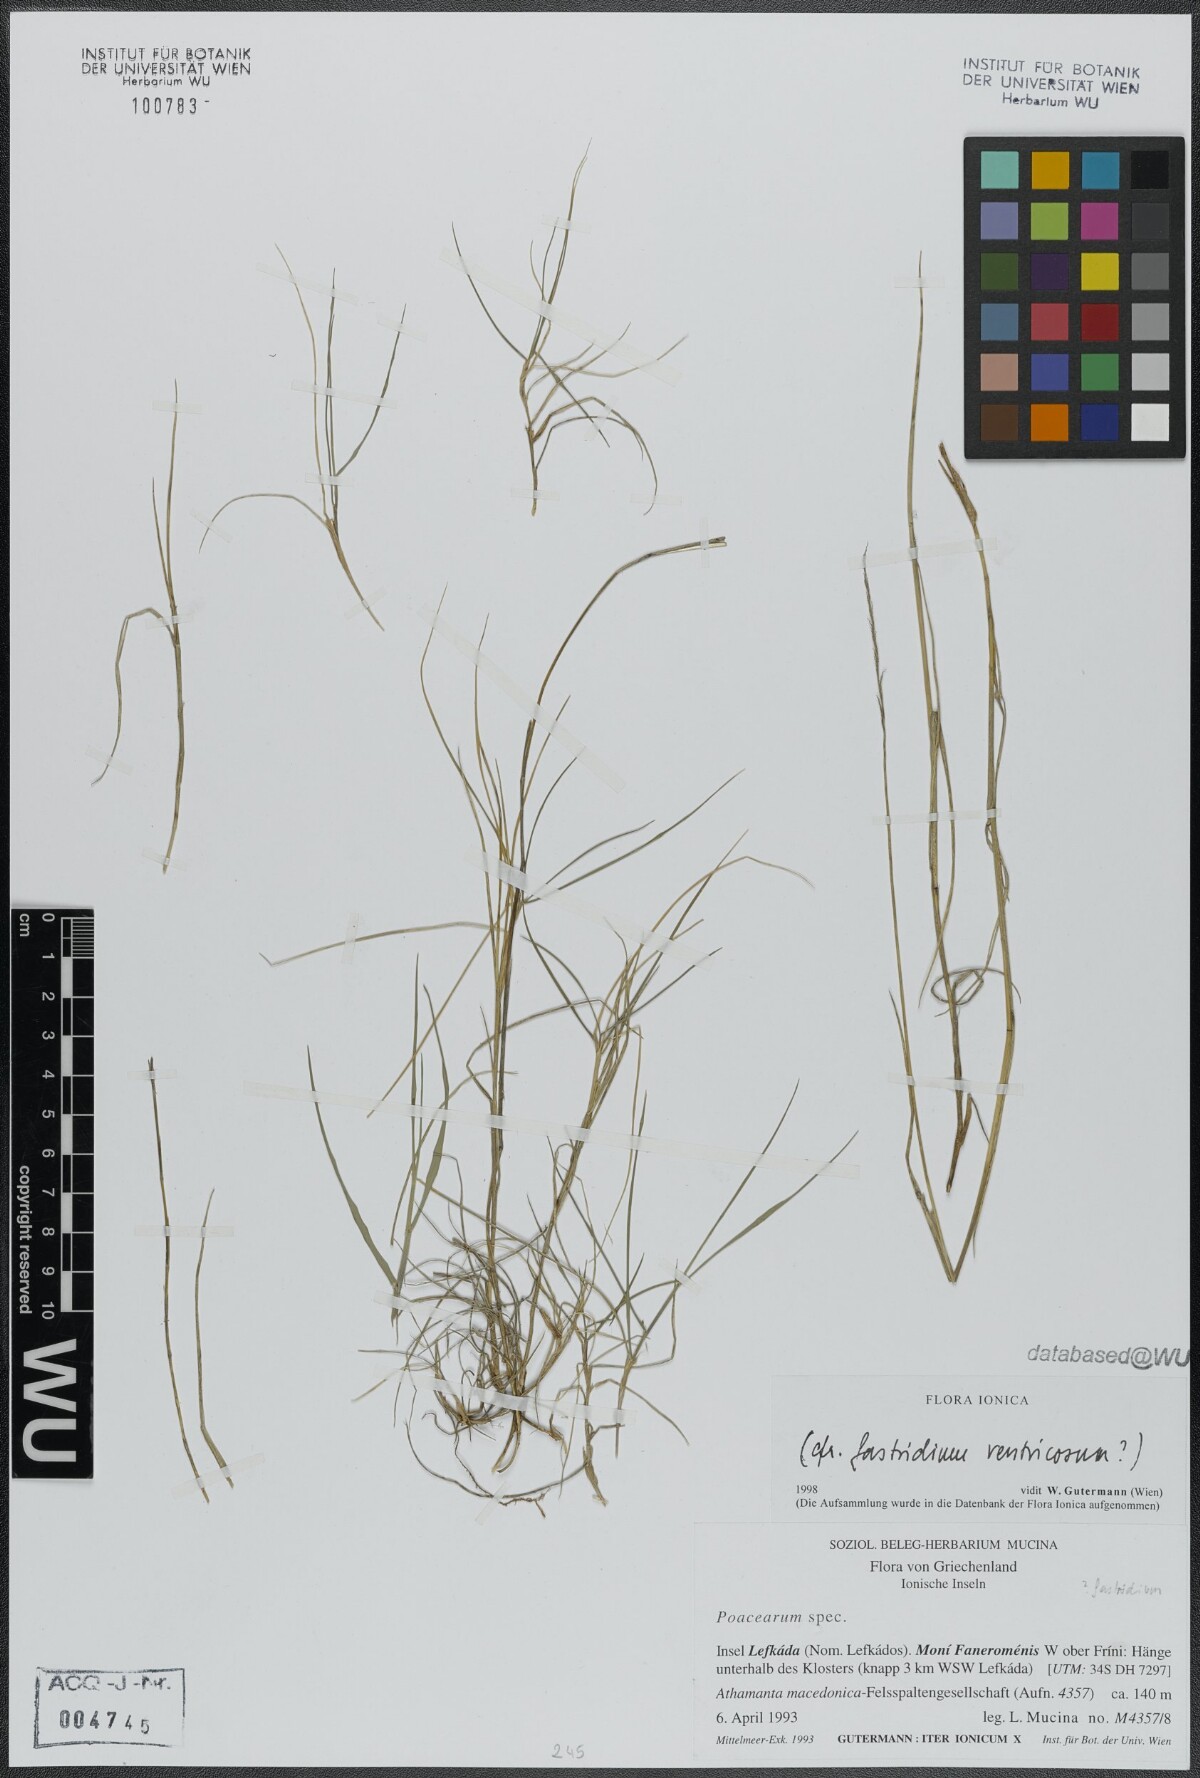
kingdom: Plantae
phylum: Tracheophyta
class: Liliopsida
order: Poales
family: Poaceae
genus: Gastridium
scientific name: Gastridium ventricosum
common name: Nit-grass
